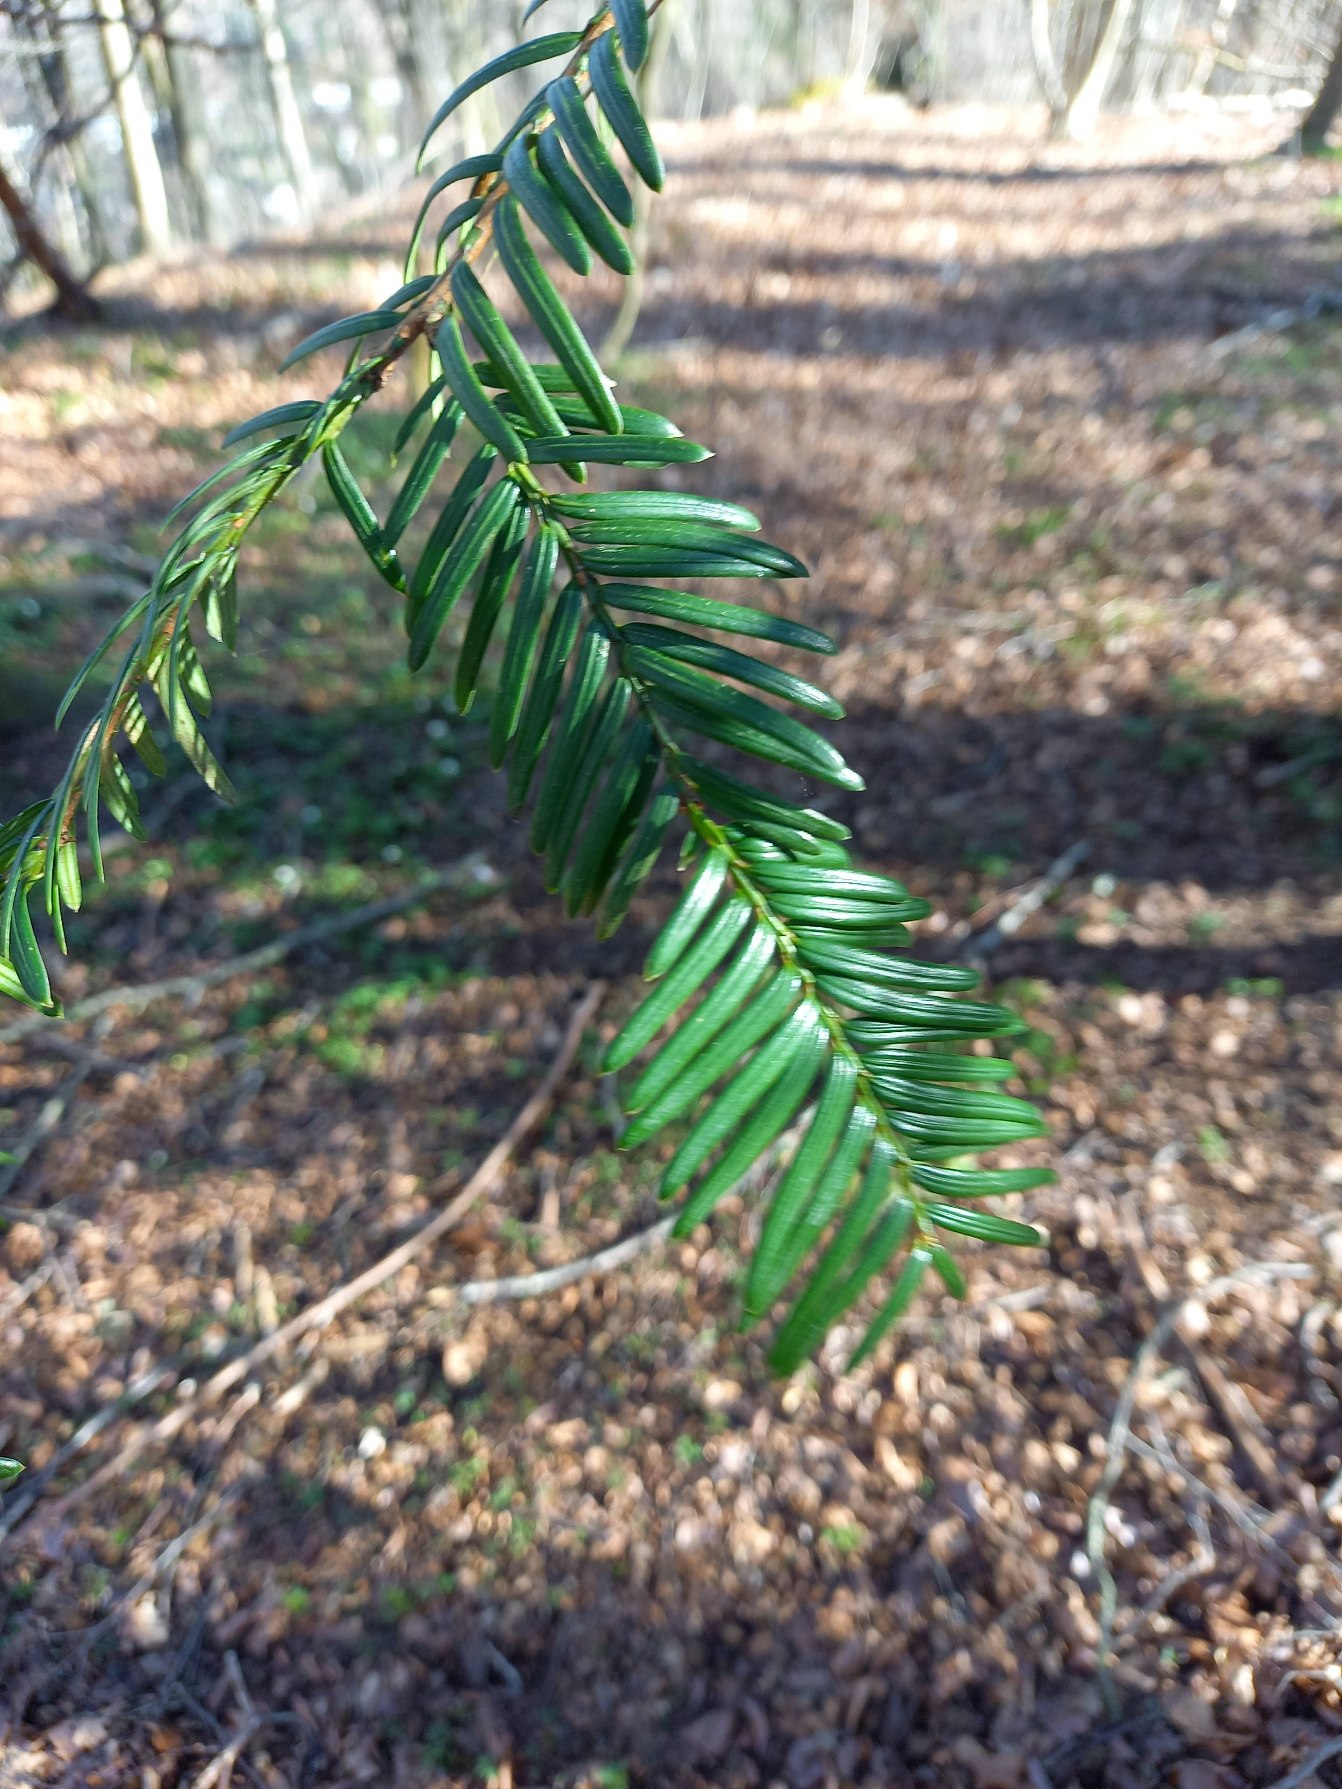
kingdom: Plantae
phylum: Tracheophyta
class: Pinopsida
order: Pinales
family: Taxaceae
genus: Taxus
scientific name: Taxus baccata
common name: Almindelig taks
